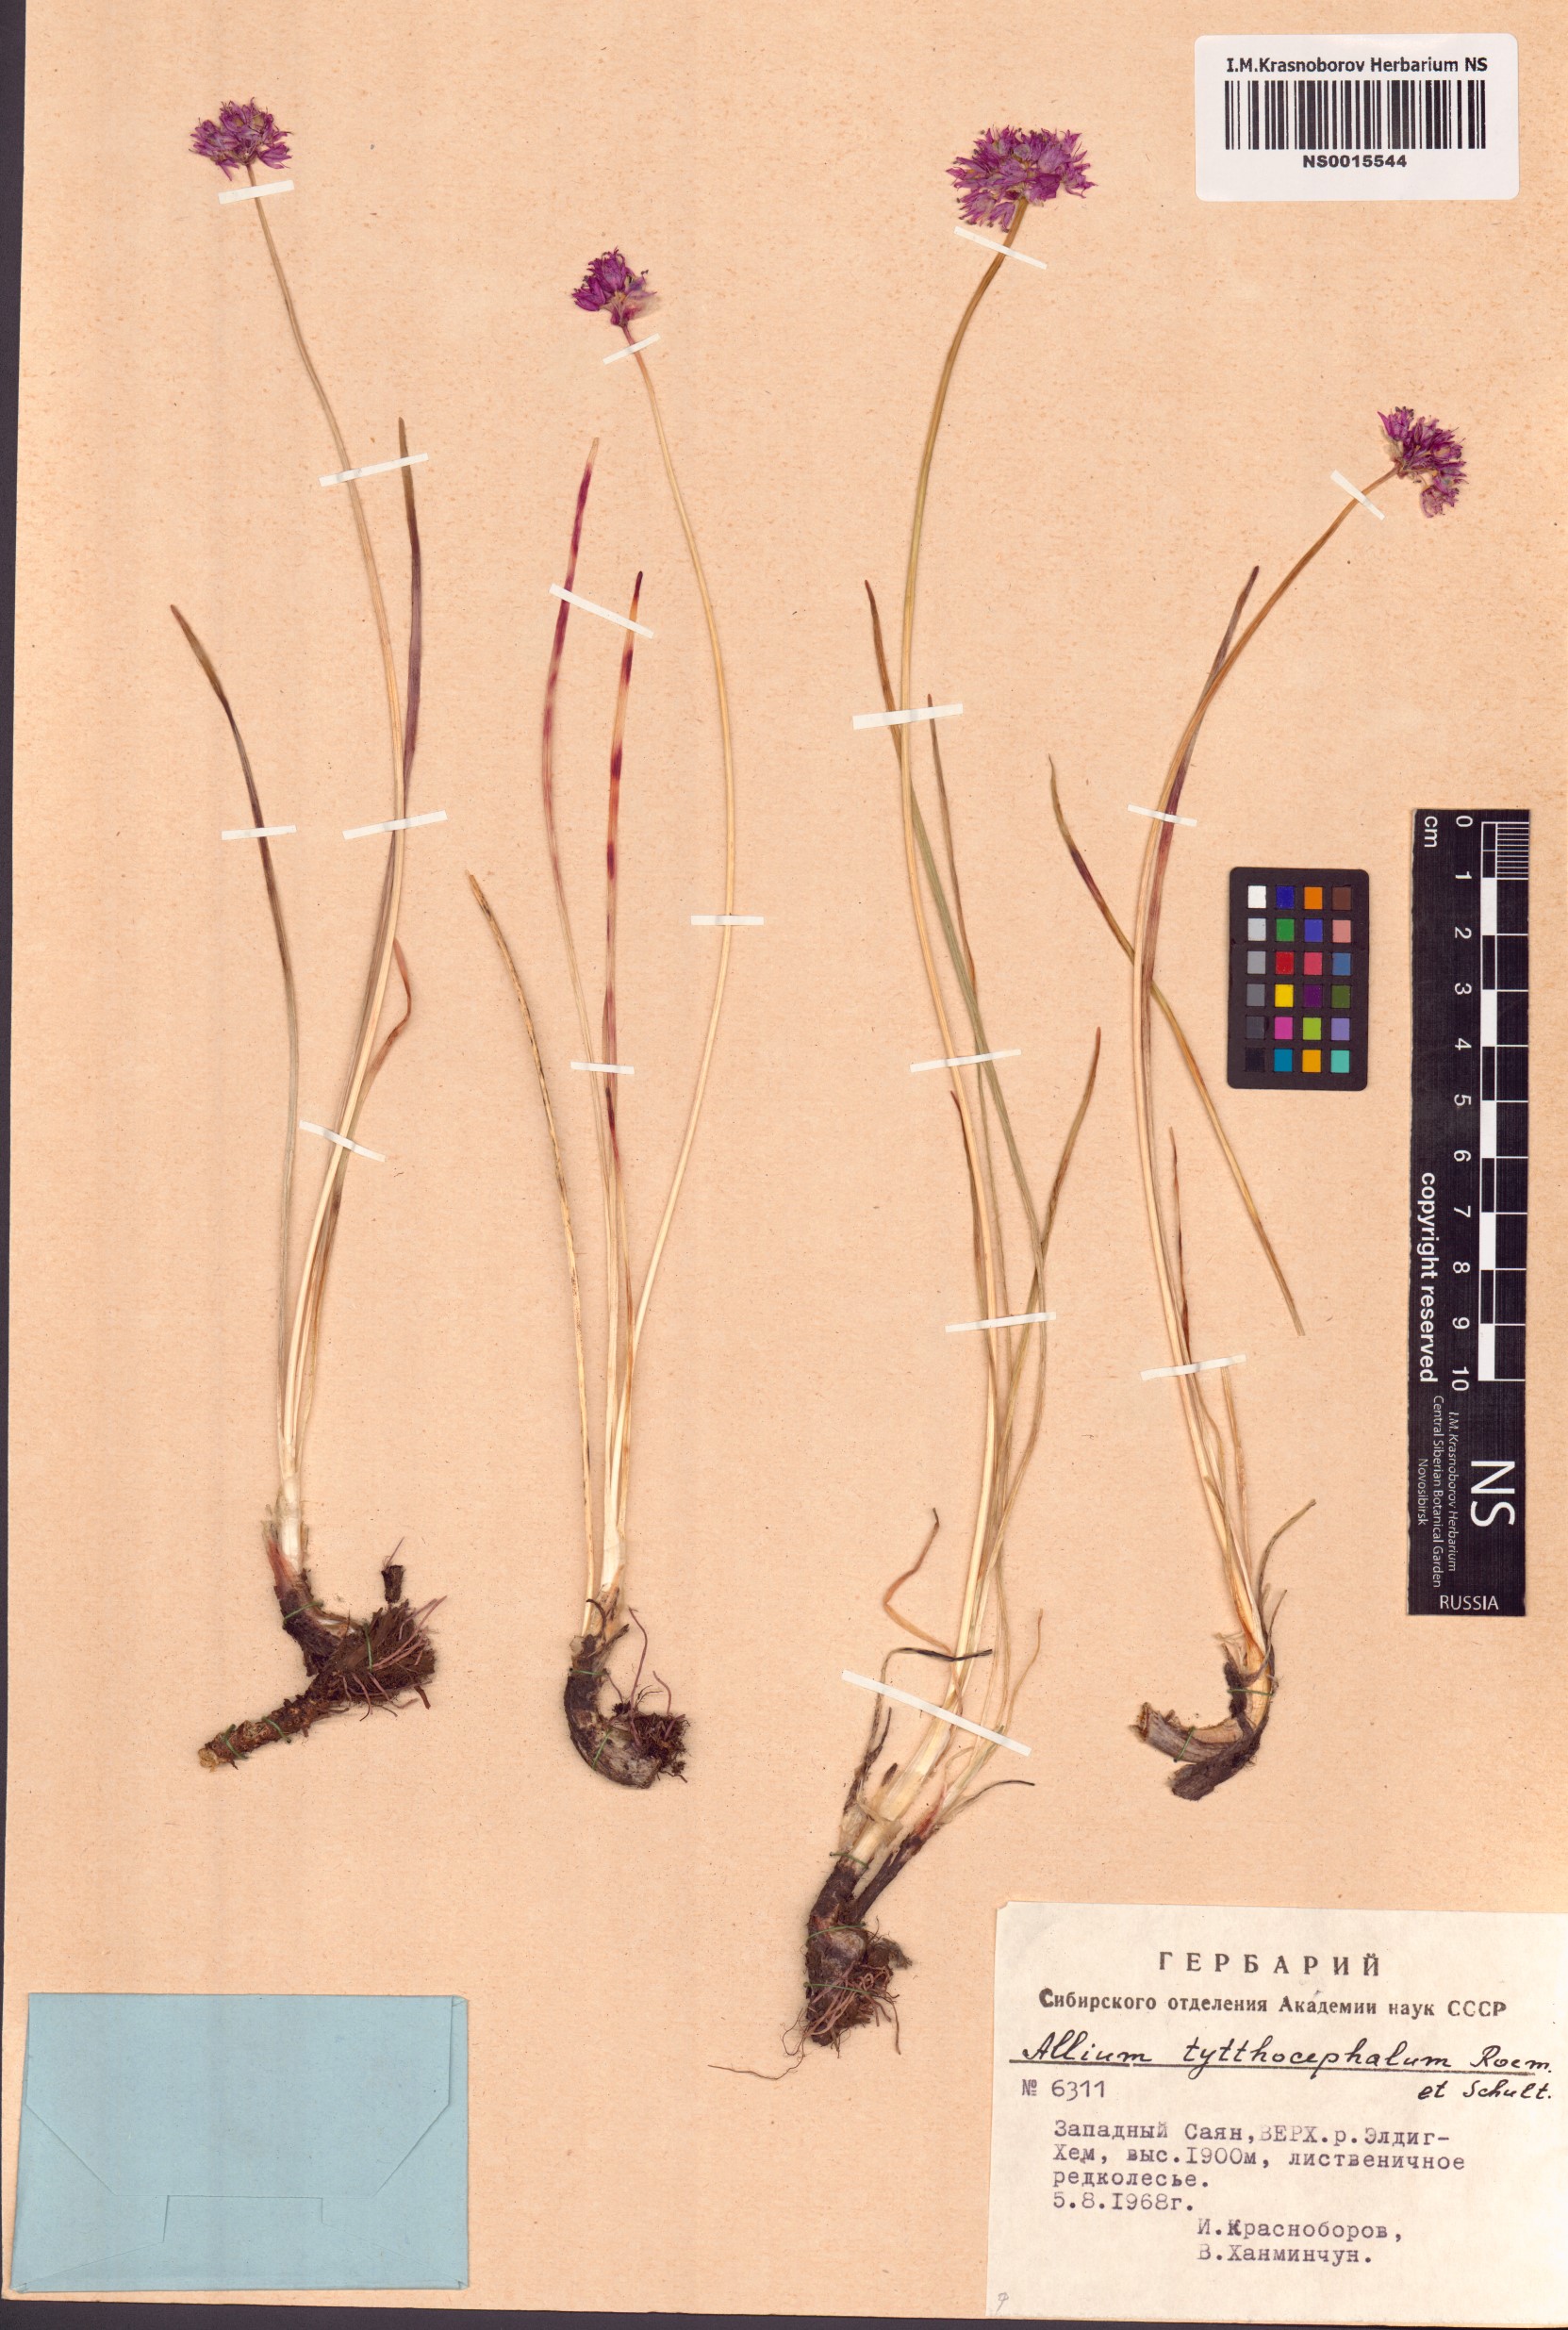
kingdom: Plantae
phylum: Tracheophyta
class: Liliopsida
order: Asparagales
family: Amaryllidaceae
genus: Allium
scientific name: Allium tytthocephalum
